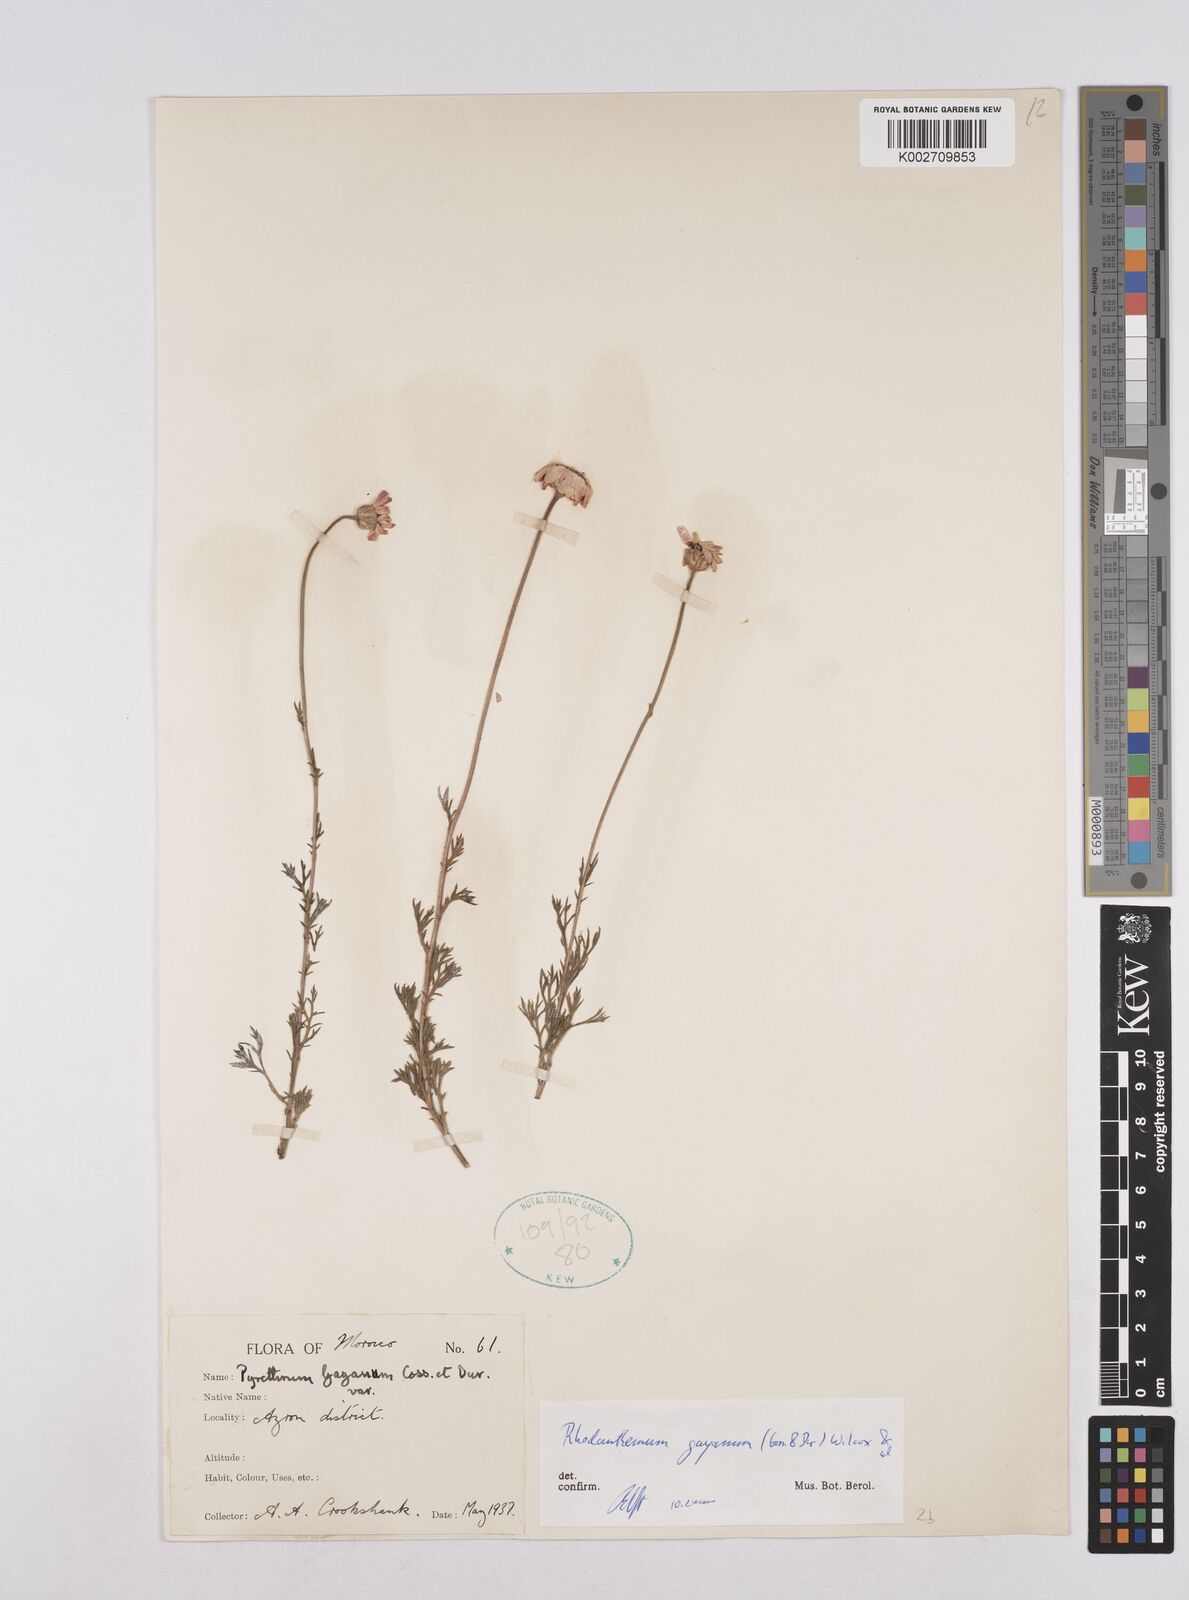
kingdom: Plantae
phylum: Tracheophyta
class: Magnoliopsida
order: Asterales
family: Asteraceae
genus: Rhodanthemum
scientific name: Rhodanthemum gayanum
